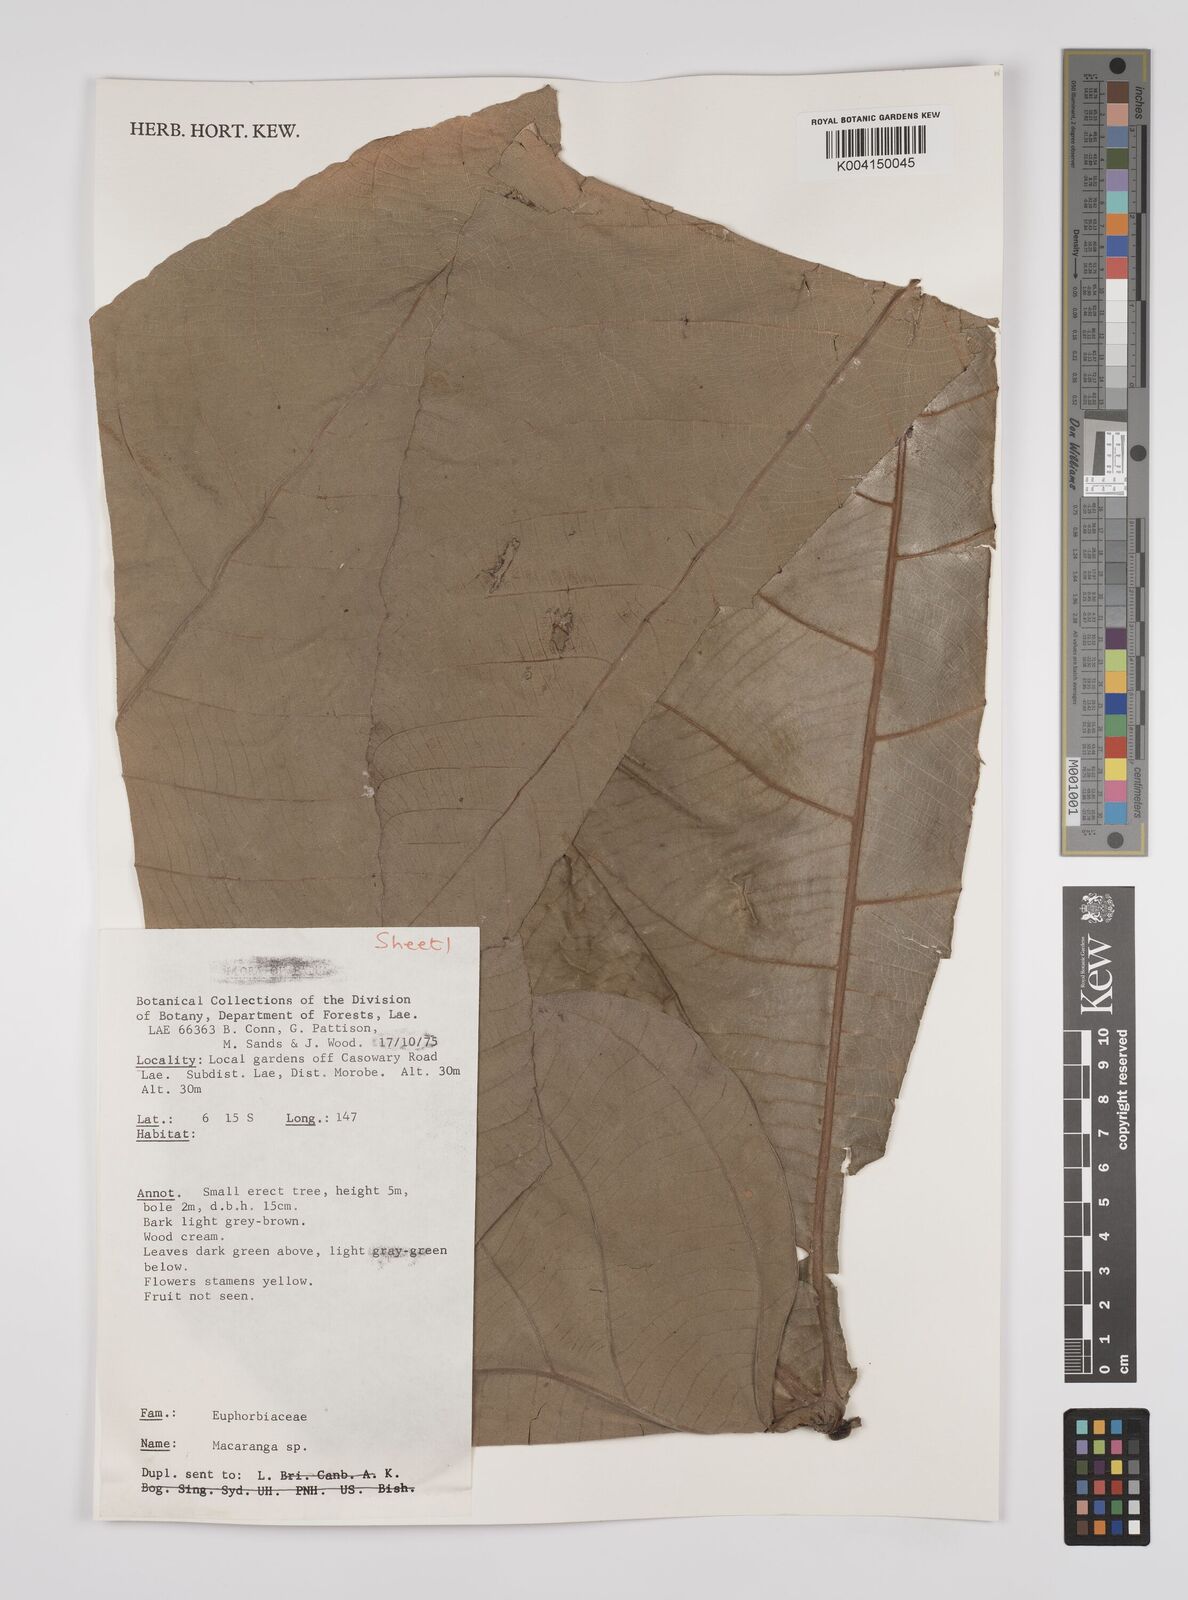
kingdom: Plantae
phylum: Tracheophyta
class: Magnoliopsida
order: Malpighiales
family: Euphorbiaceae
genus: Macaranga
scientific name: Macaranga
